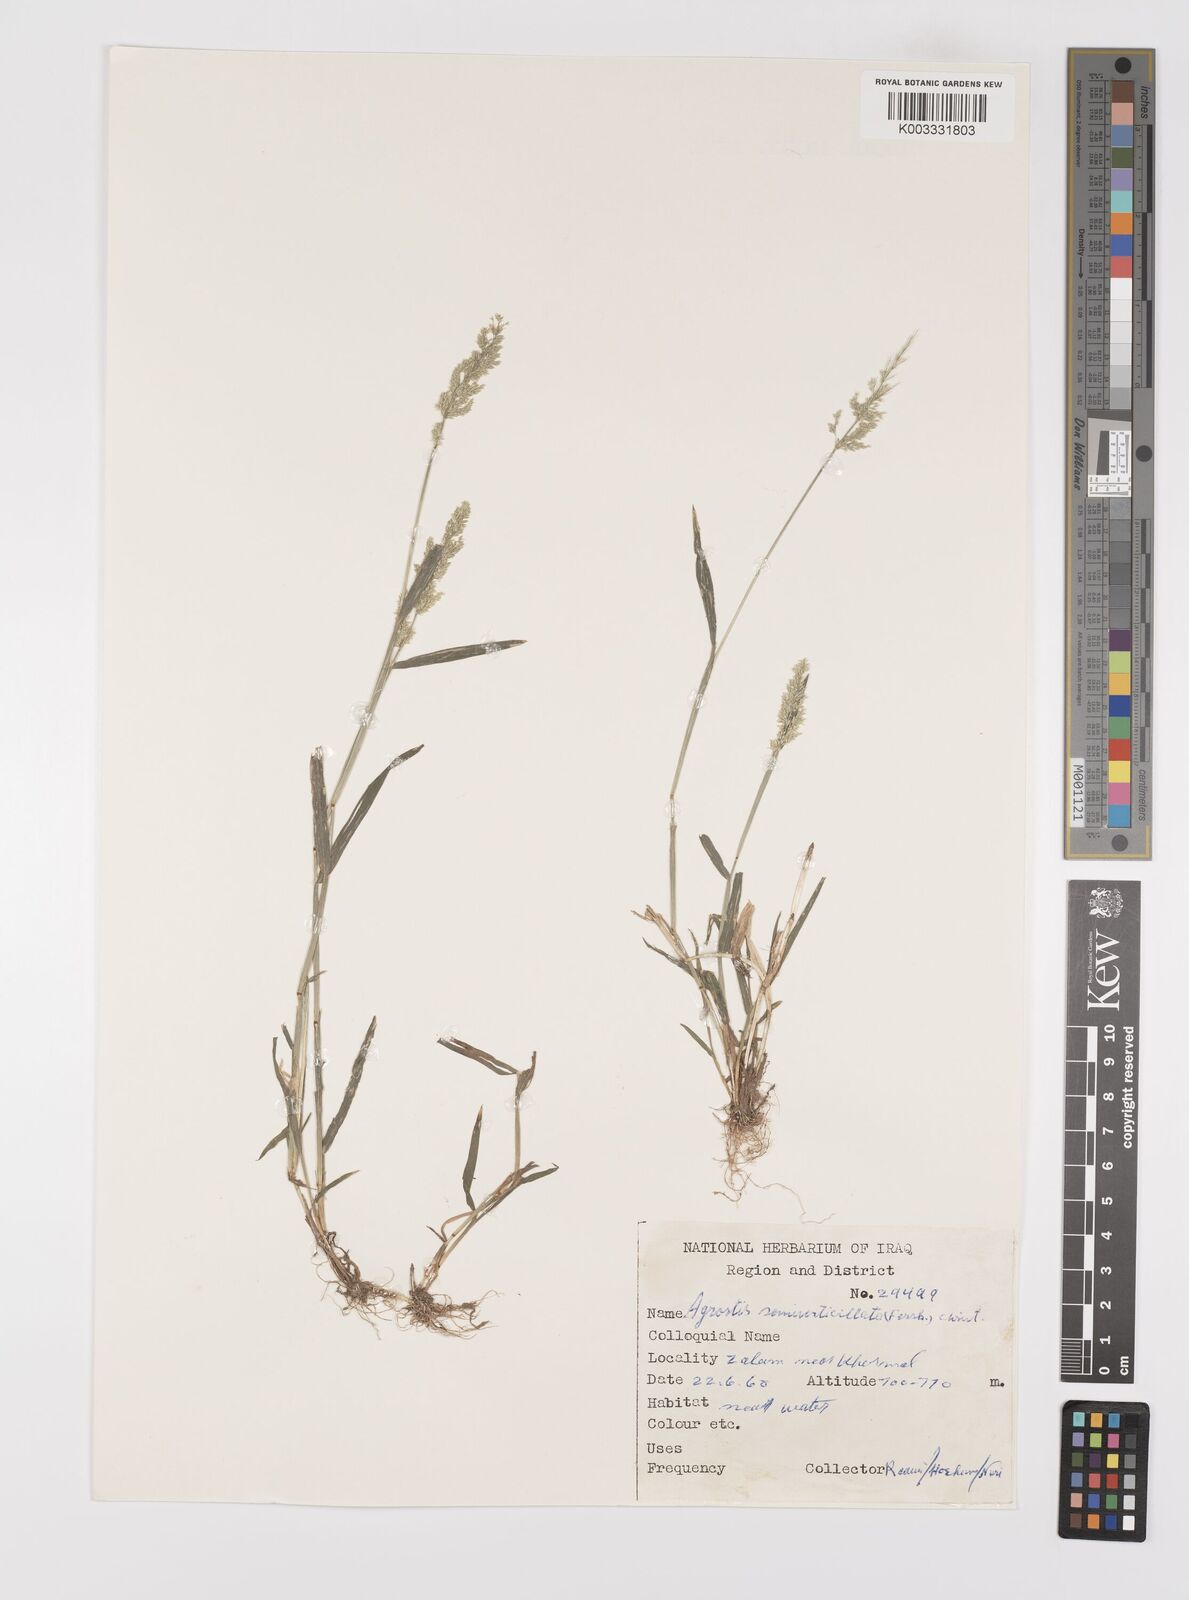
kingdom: Plantae
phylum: Tracheophyta
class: Liliopsida
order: Poales
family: Poaceae
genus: Polypogon
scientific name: Polypogon viridis
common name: Water bent
